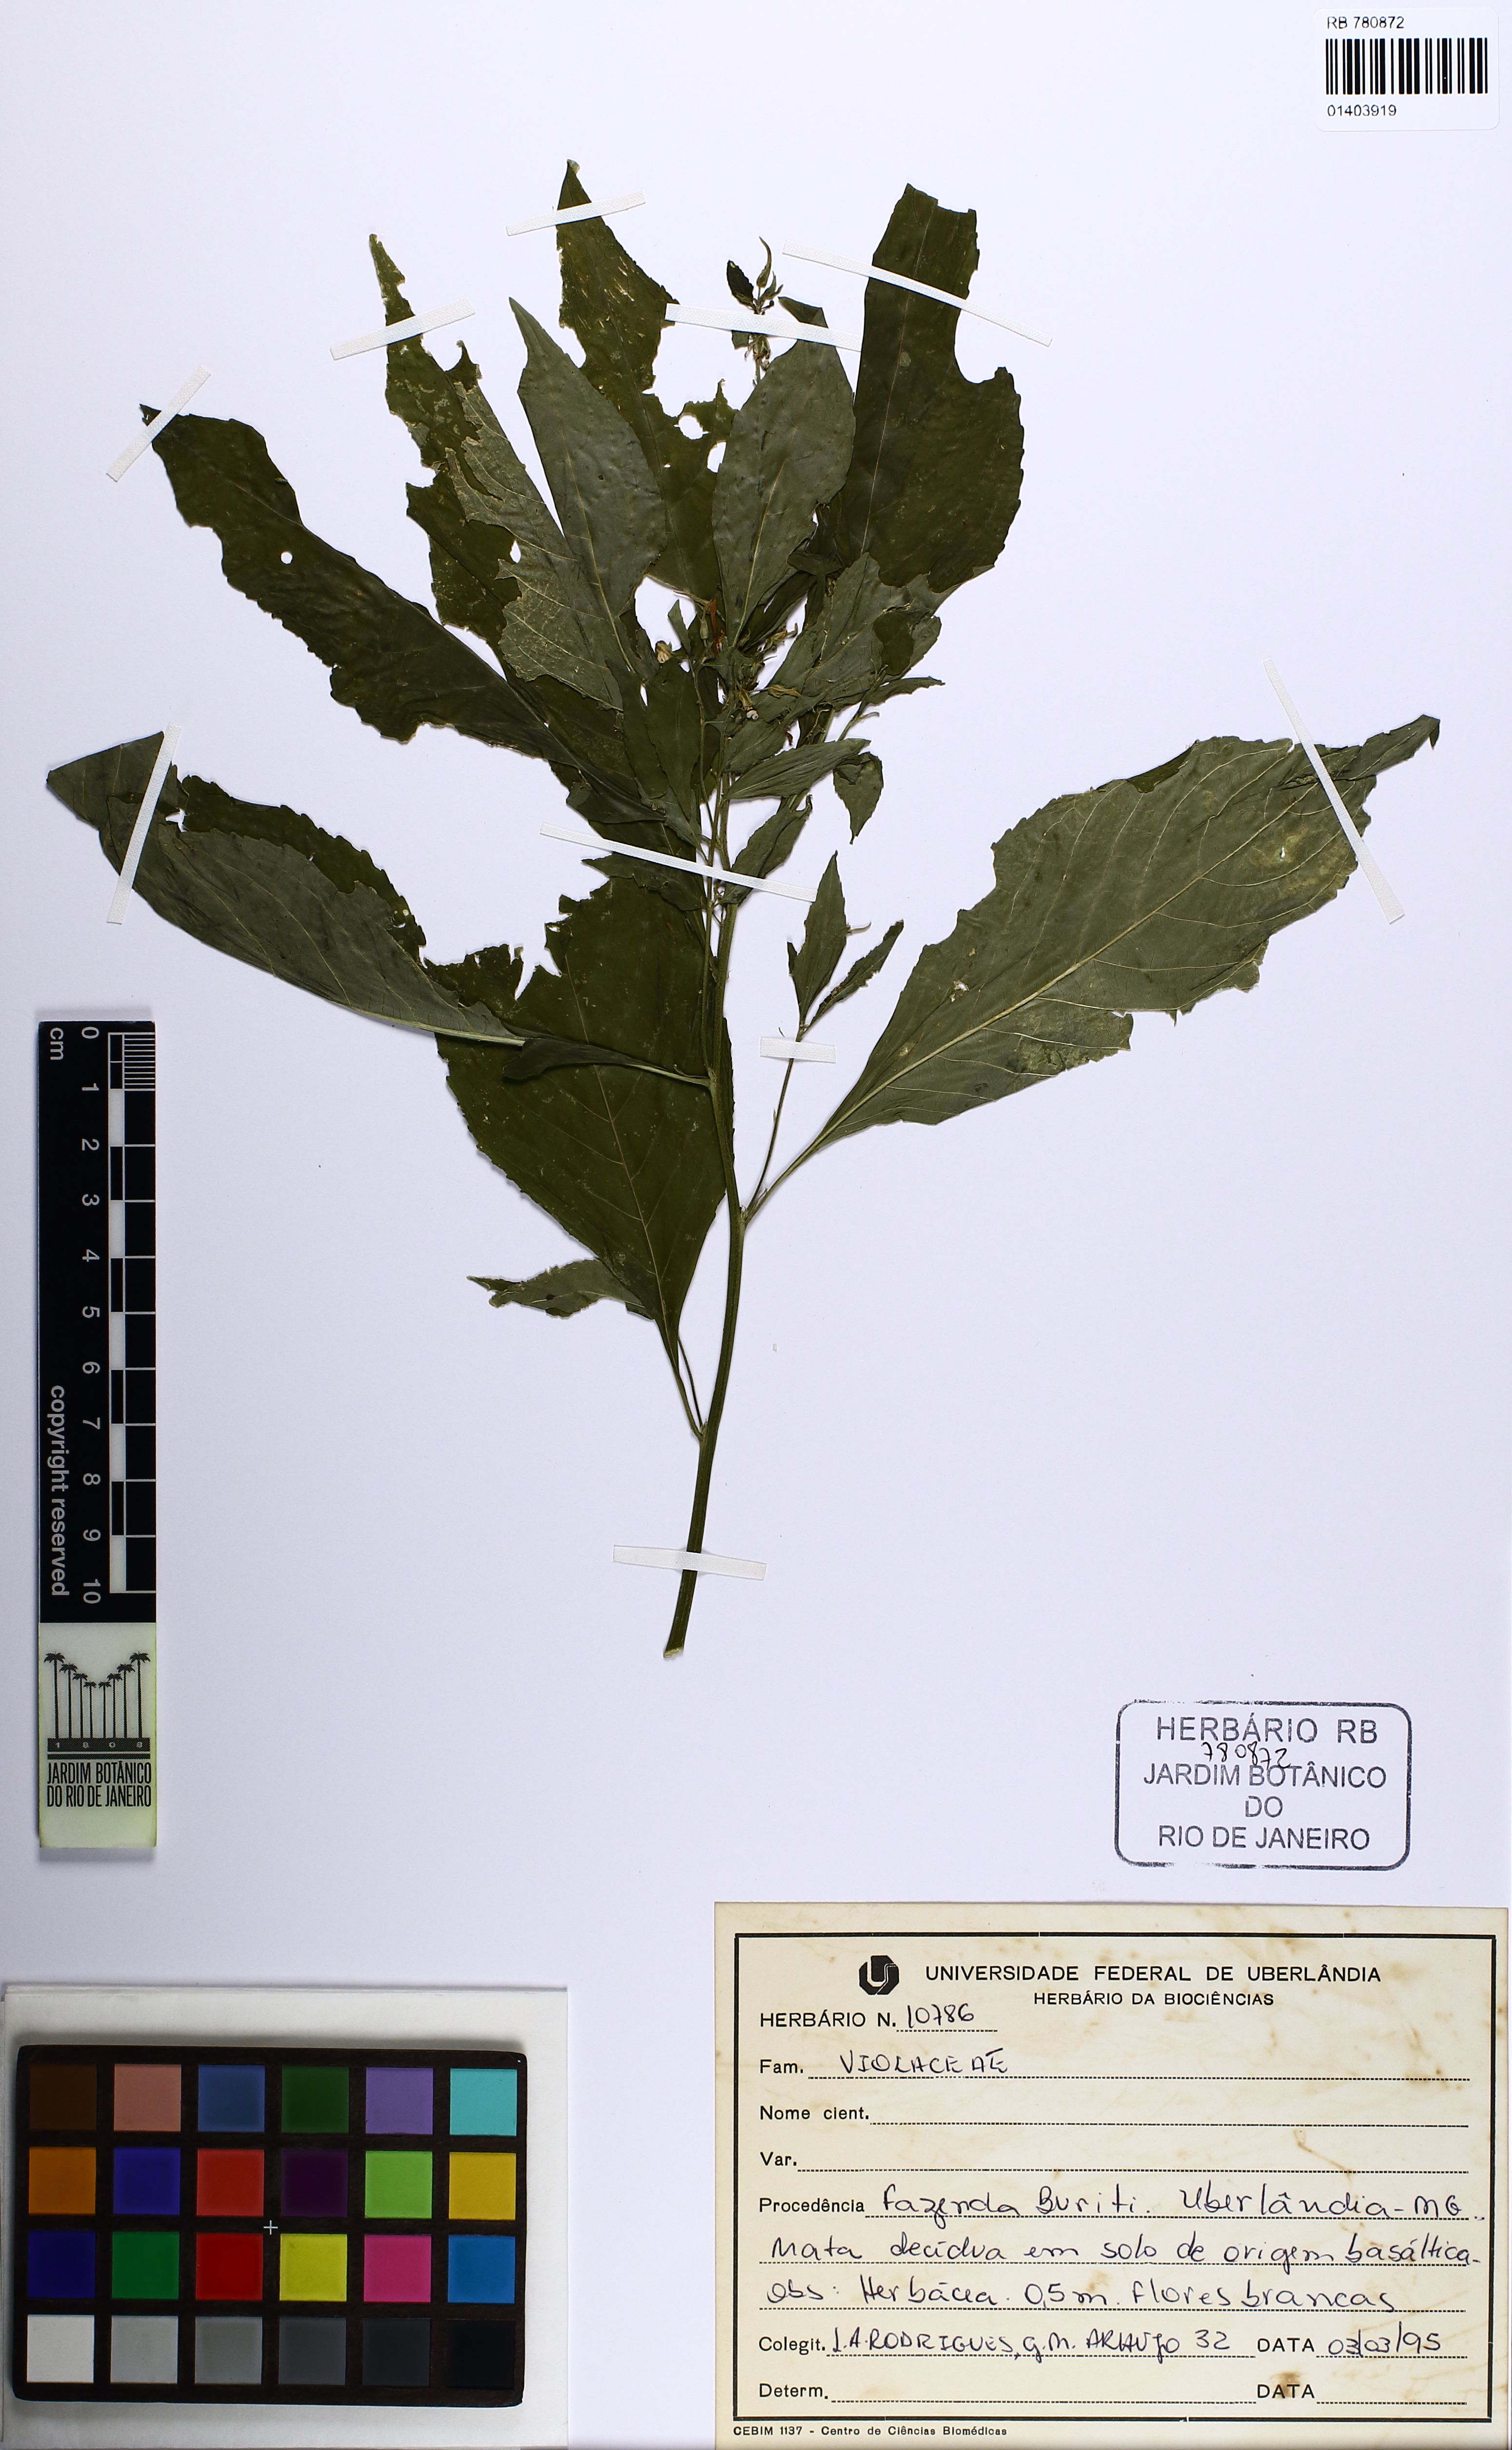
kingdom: Plantae
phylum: Tracheophyta
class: Magnoliopsida
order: Malpighiales
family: Violaceae
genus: Pombalia
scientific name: Pombalia
